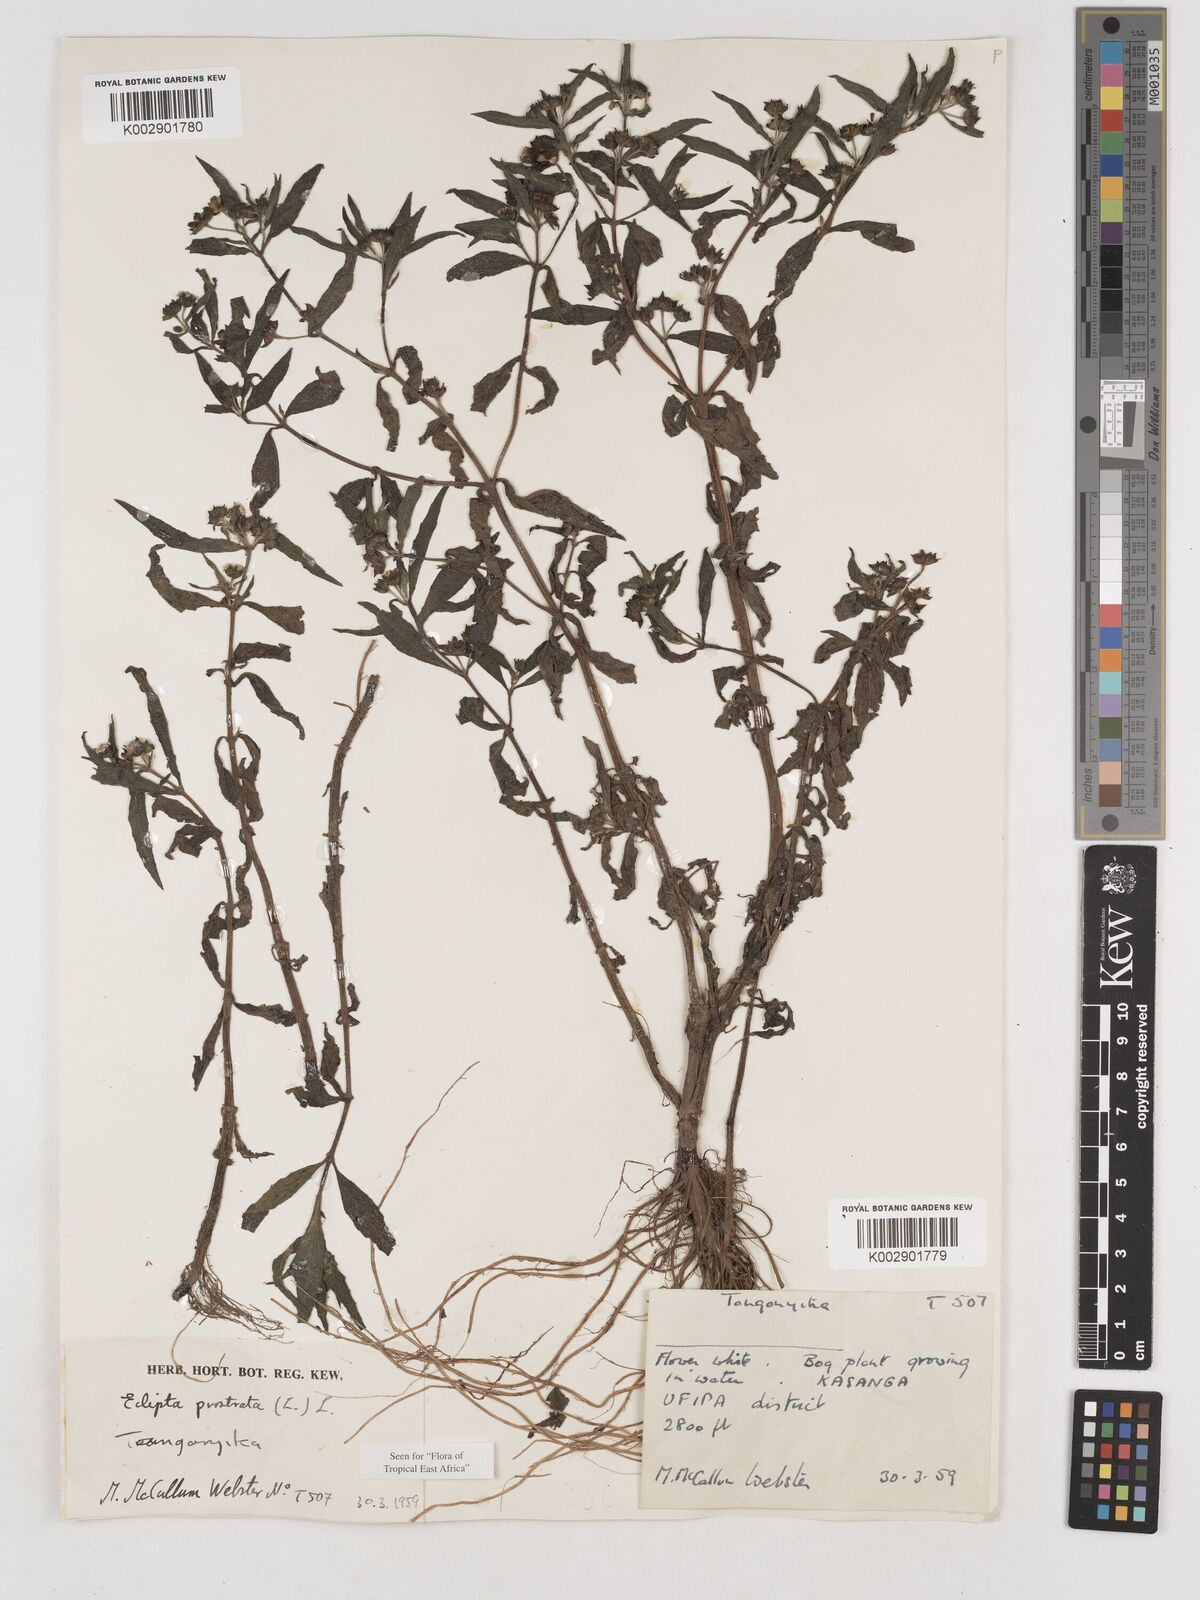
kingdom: Plantae
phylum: Tracheophyta
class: Magnoliopsida
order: Asterales
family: Asteraceae
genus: Eclipta
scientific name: Eclipta alba
